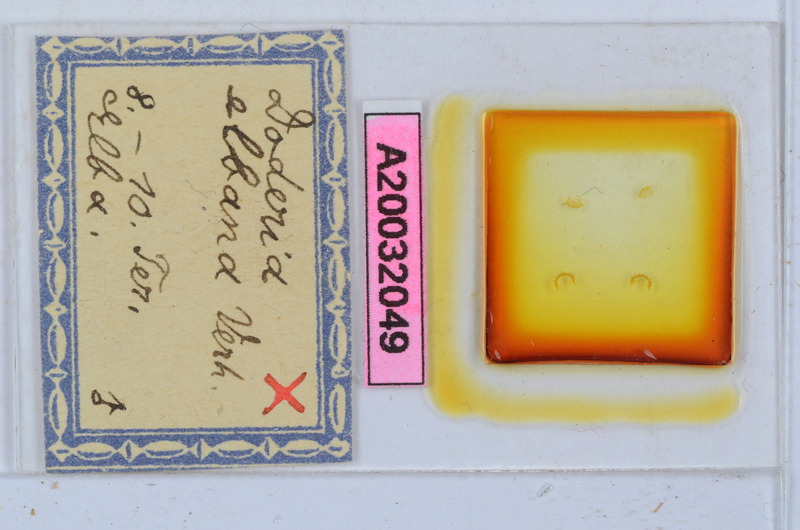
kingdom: Animalia
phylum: Arthropoda
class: Diplopoda
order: Glomerida
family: Glomeridae
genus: Doderia
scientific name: Doderia elbana
